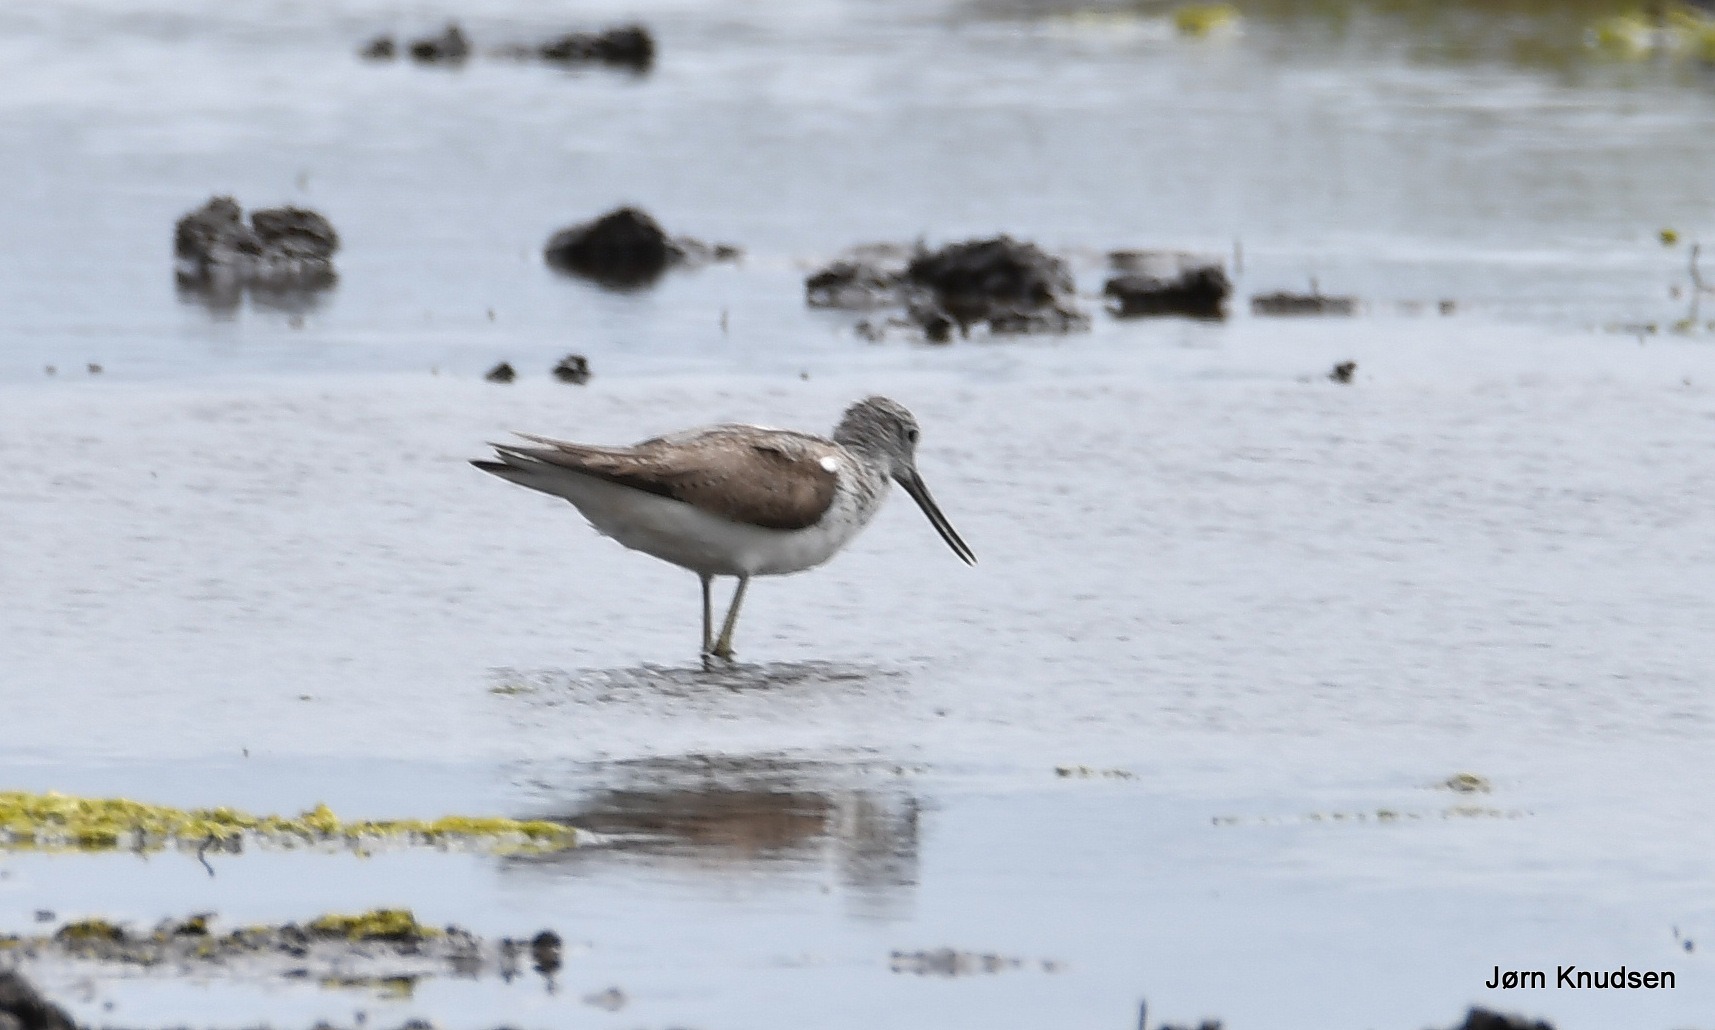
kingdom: Animalia
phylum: Chordata
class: Aves
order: Charadriiformes
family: Scolopacidae
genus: Tringa
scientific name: Tringa nebularia
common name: Hvidklire
